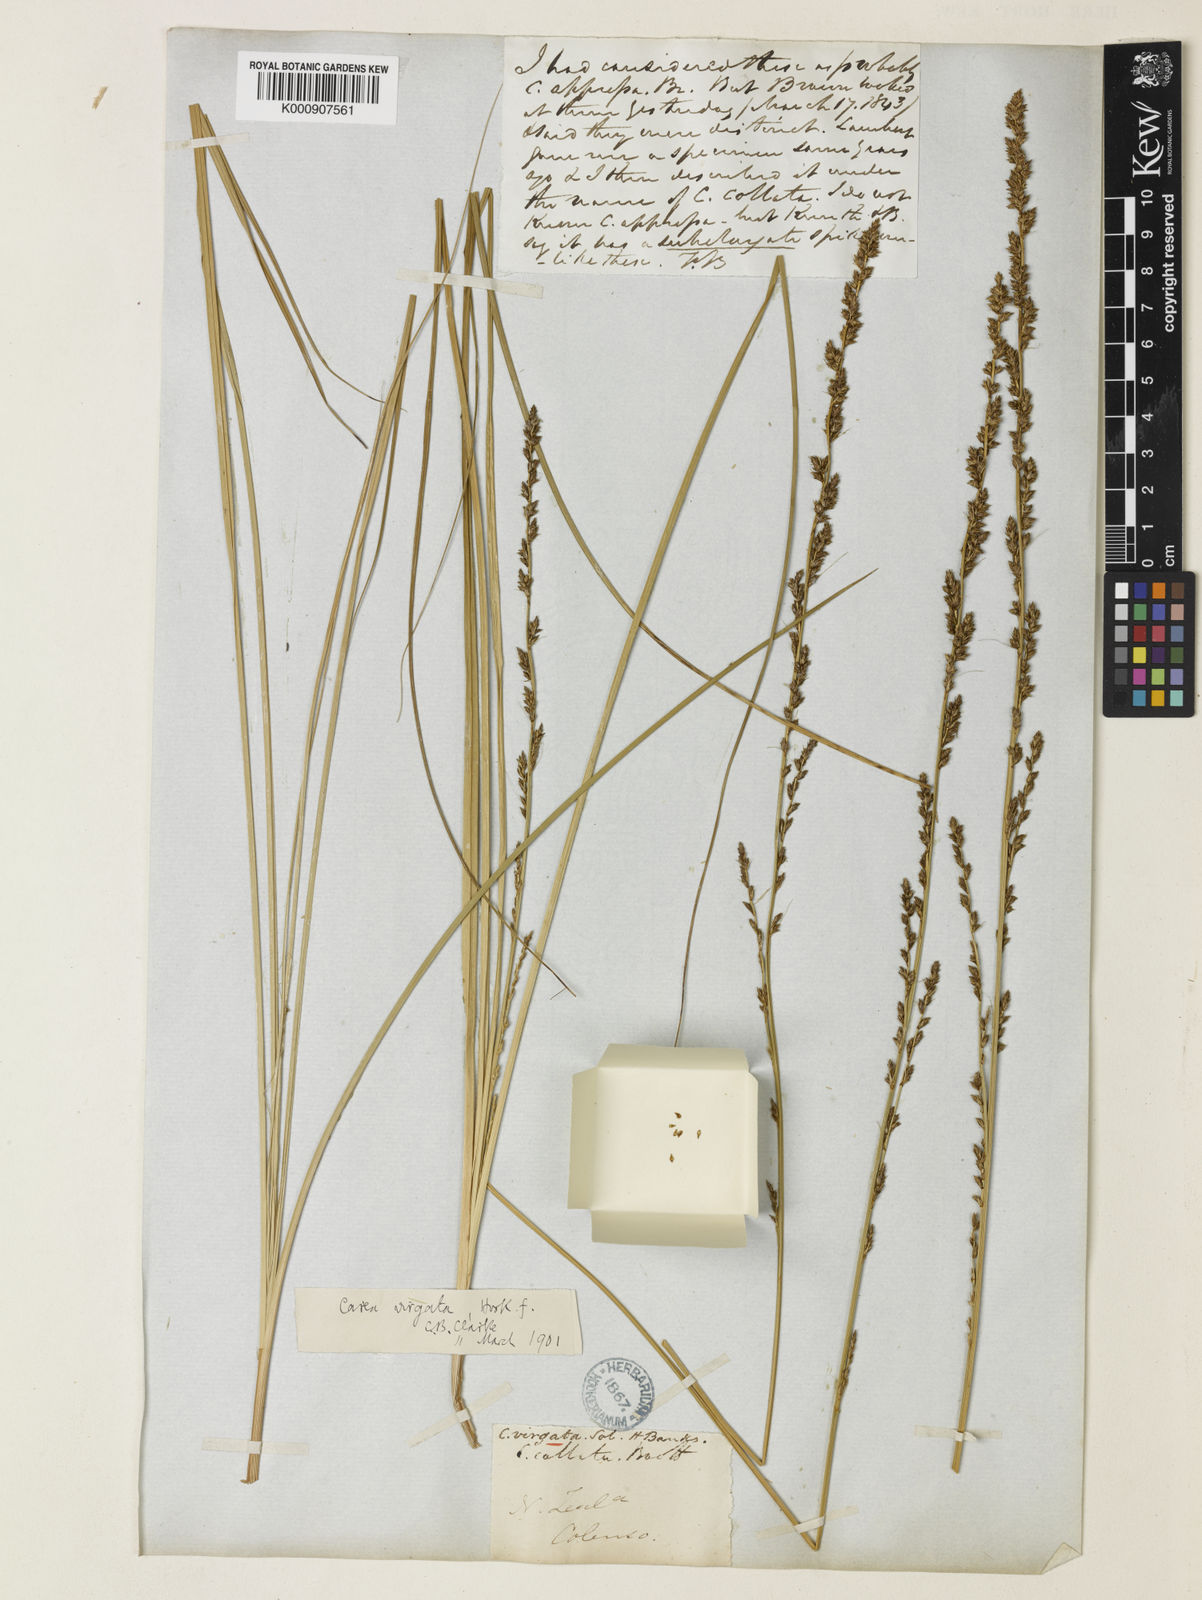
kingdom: Plantae
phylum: Tracheophyta
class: Liliopsida
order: Poales
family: Cyperaceae
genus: Carex
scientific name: Carex
